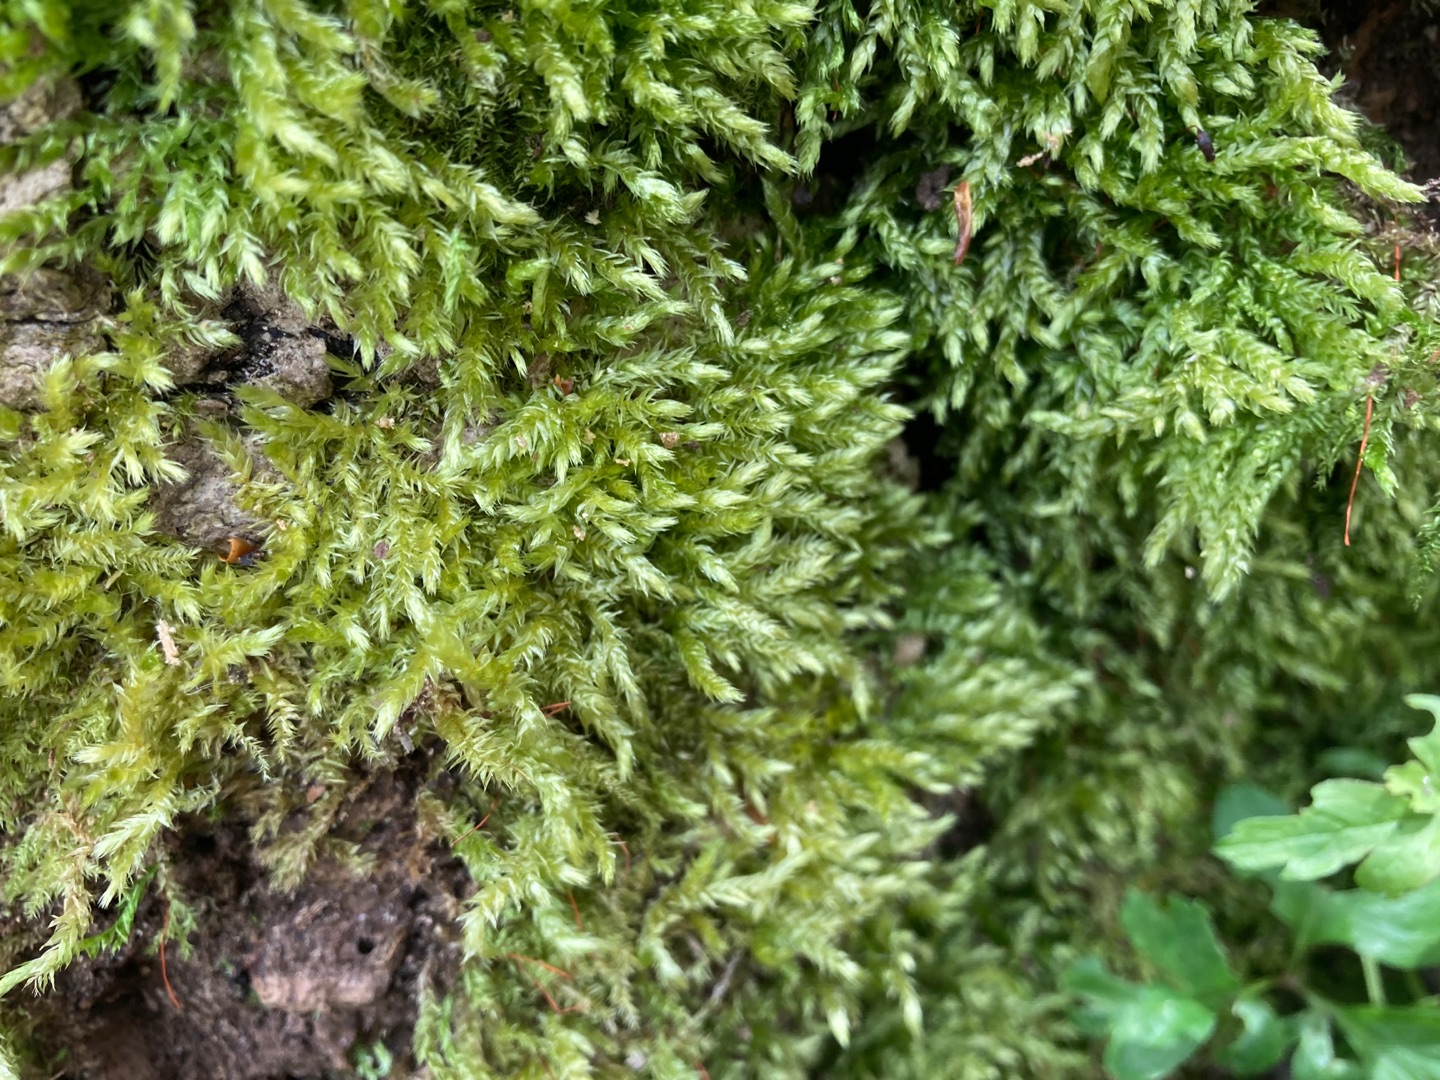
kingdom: Plantae
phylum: Bryophyta
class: Bryopsida
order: Hypnales
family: Brachytheciaceae
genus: Brachythecium
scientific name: Brachythecium rutabulum
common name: Almindelig kortkapsel
